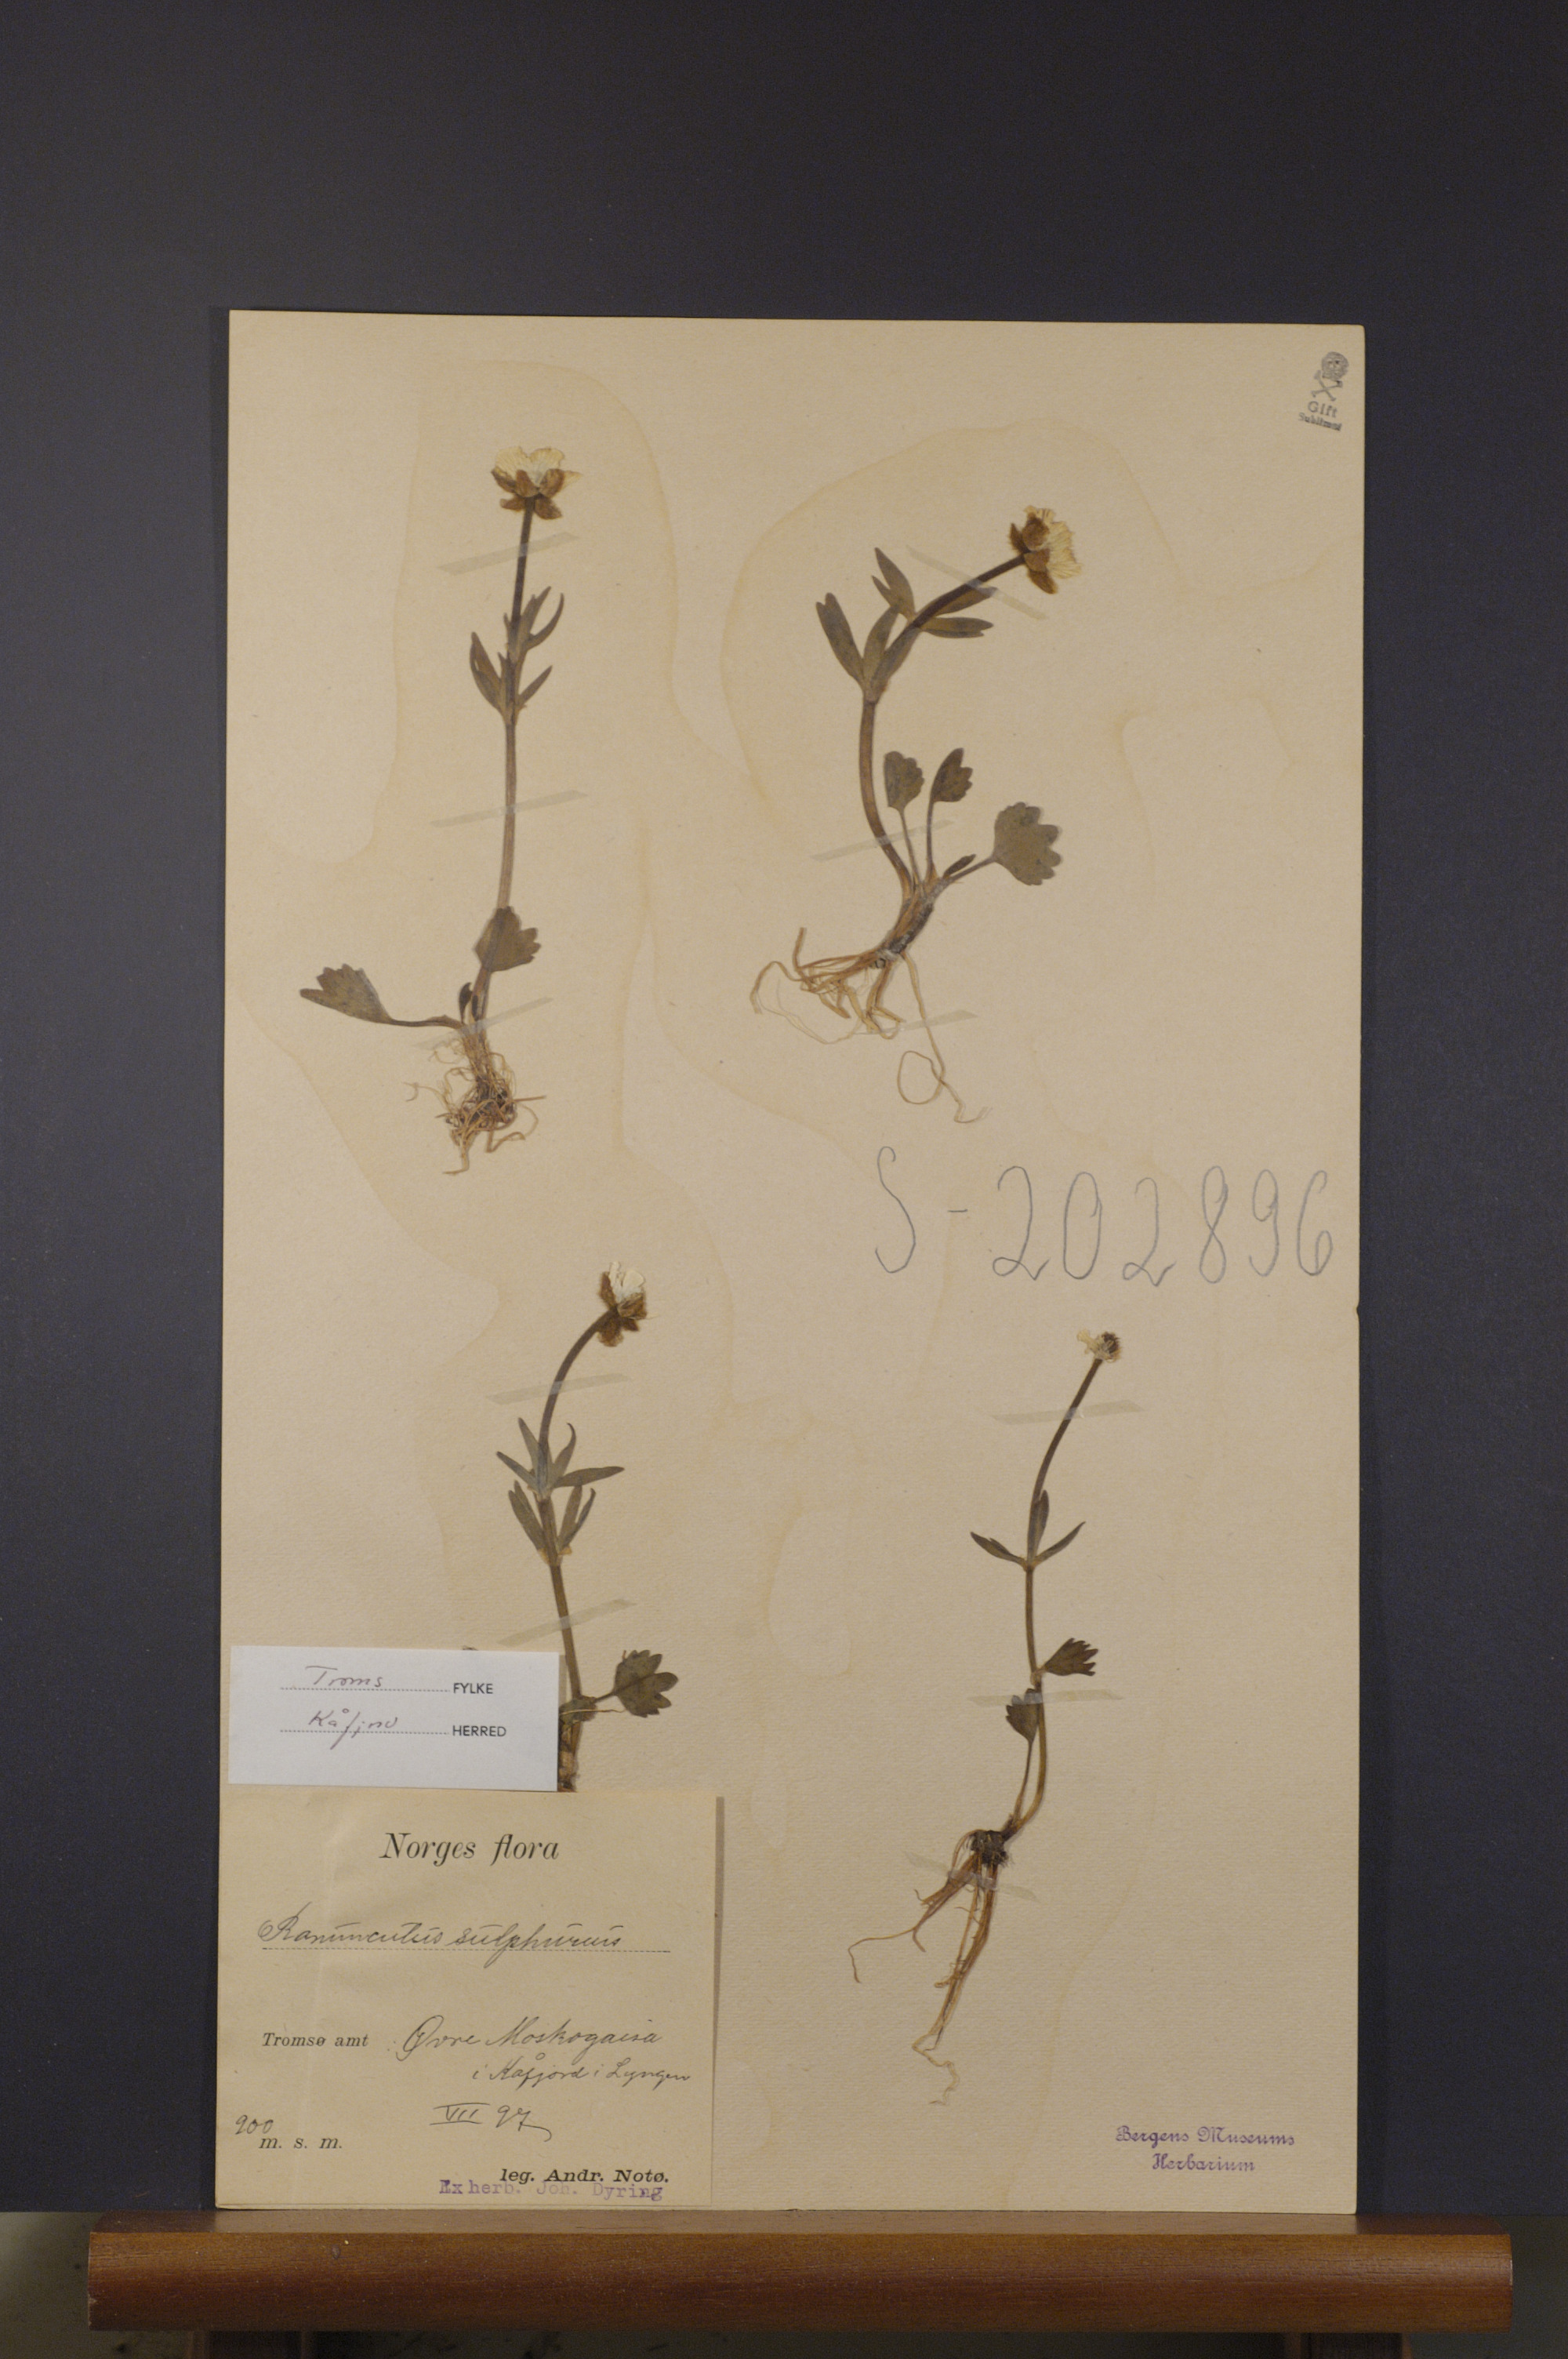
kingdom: Plantae
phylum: Tracheophyta
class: Magnoliopsida
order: Ranunculales
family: Ranunculaceae
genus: Ranunculus
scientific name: Ranunculus sulphureus
